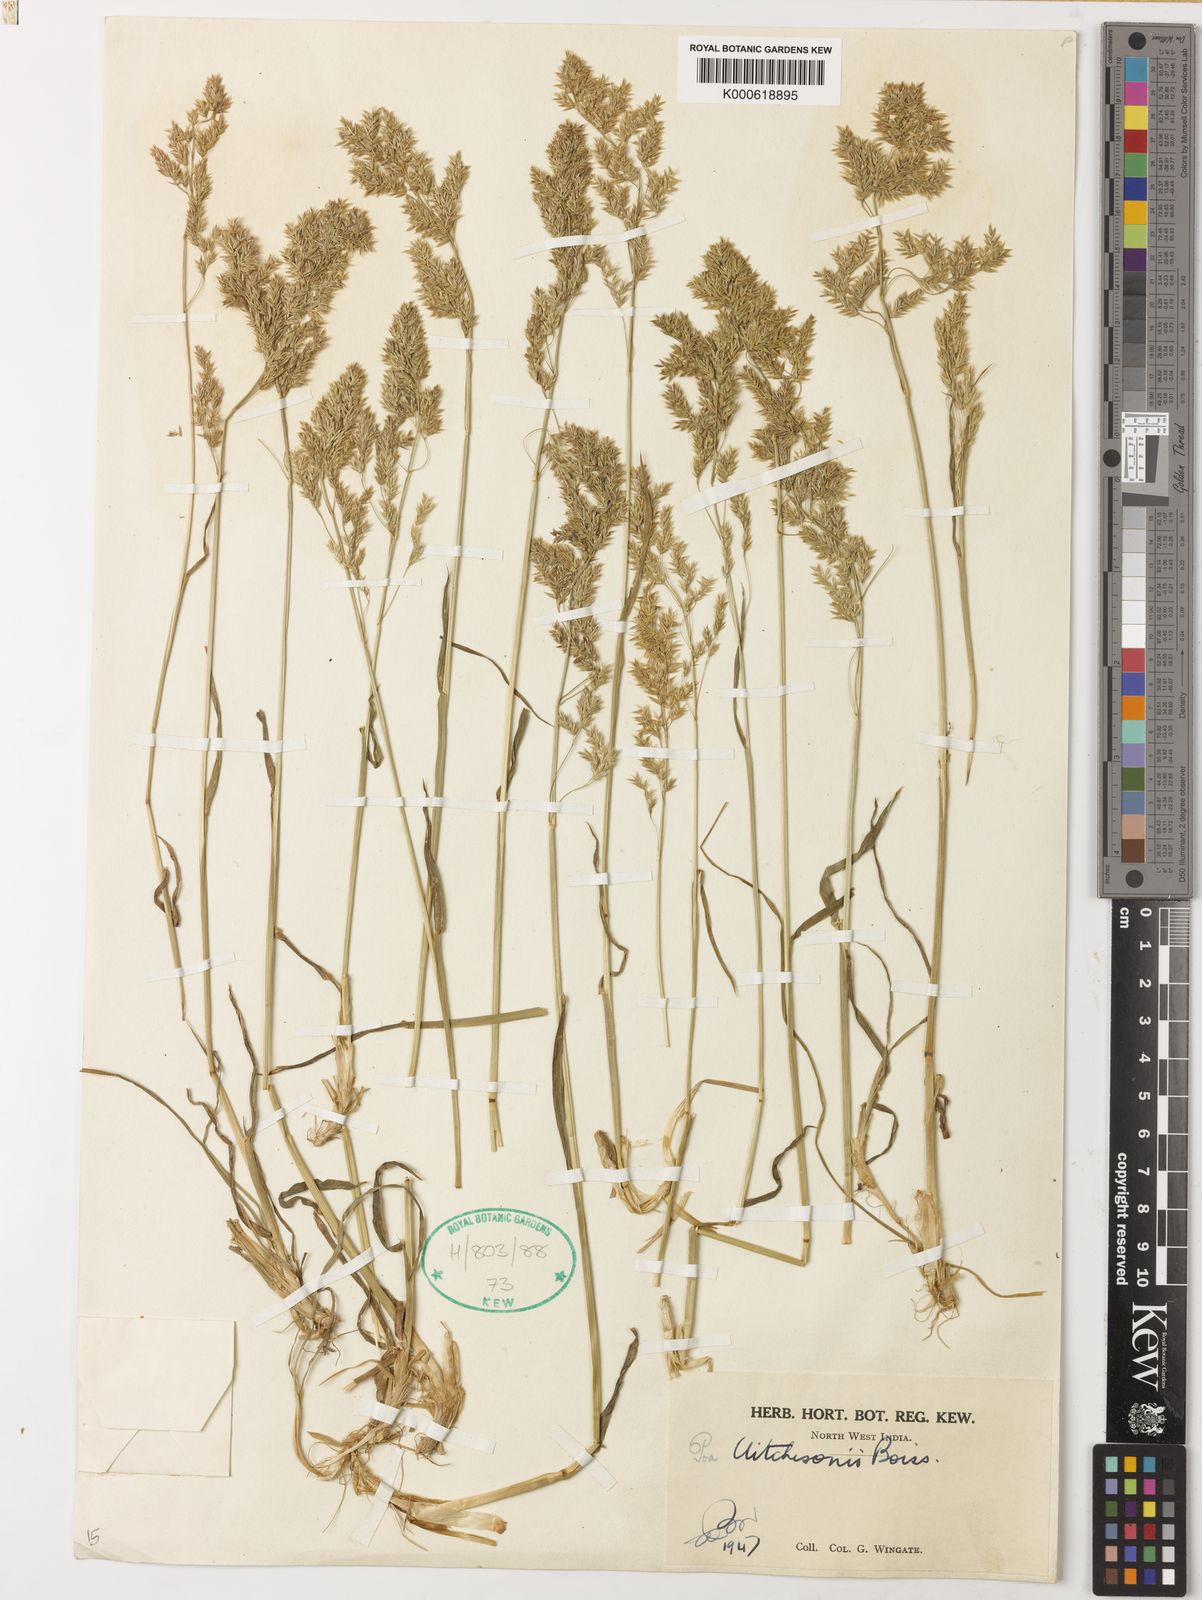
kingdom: Plantae
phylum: Tracheophyta
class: Liliopsida
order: Poales
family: Poaceae
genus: Poa
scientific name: Poa aitchisonii
